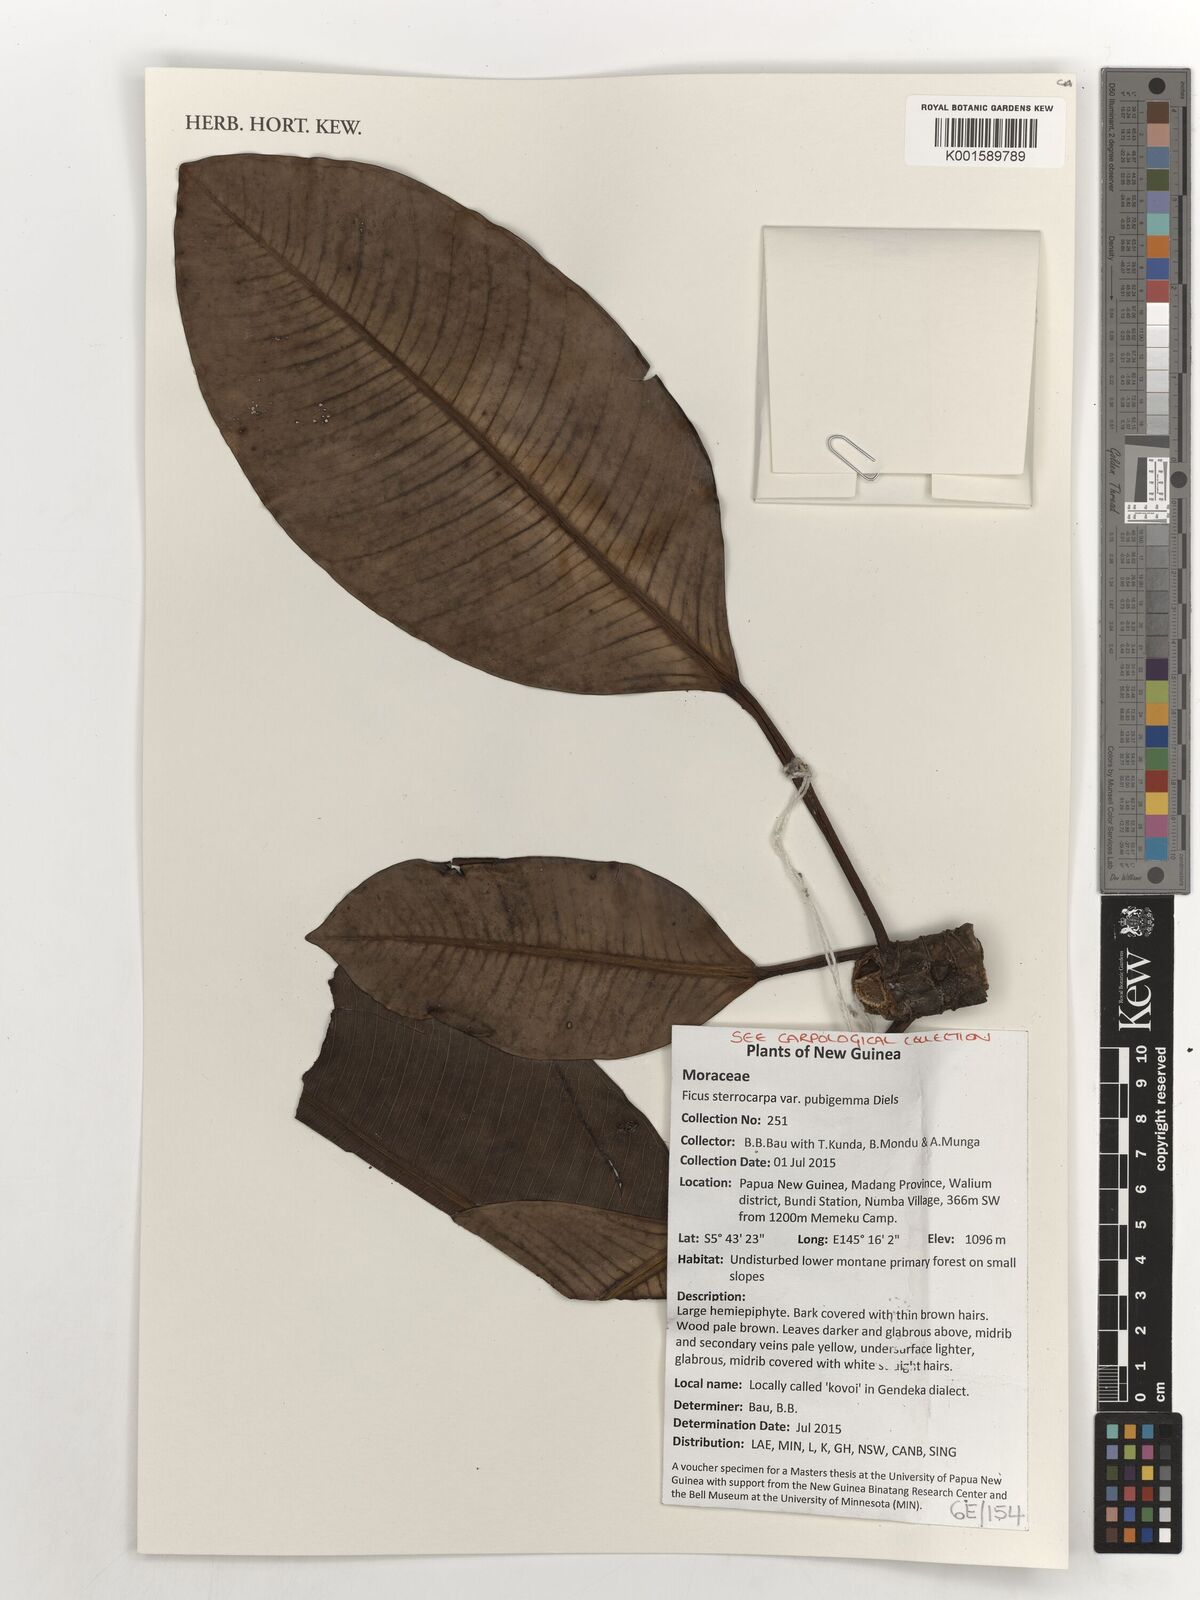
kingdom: Plantae
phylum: Tracheophyta
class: Magnoliopsida
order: Rosales
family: Moraceae
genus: Ficus
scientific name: Ficus hesperidiiformis
